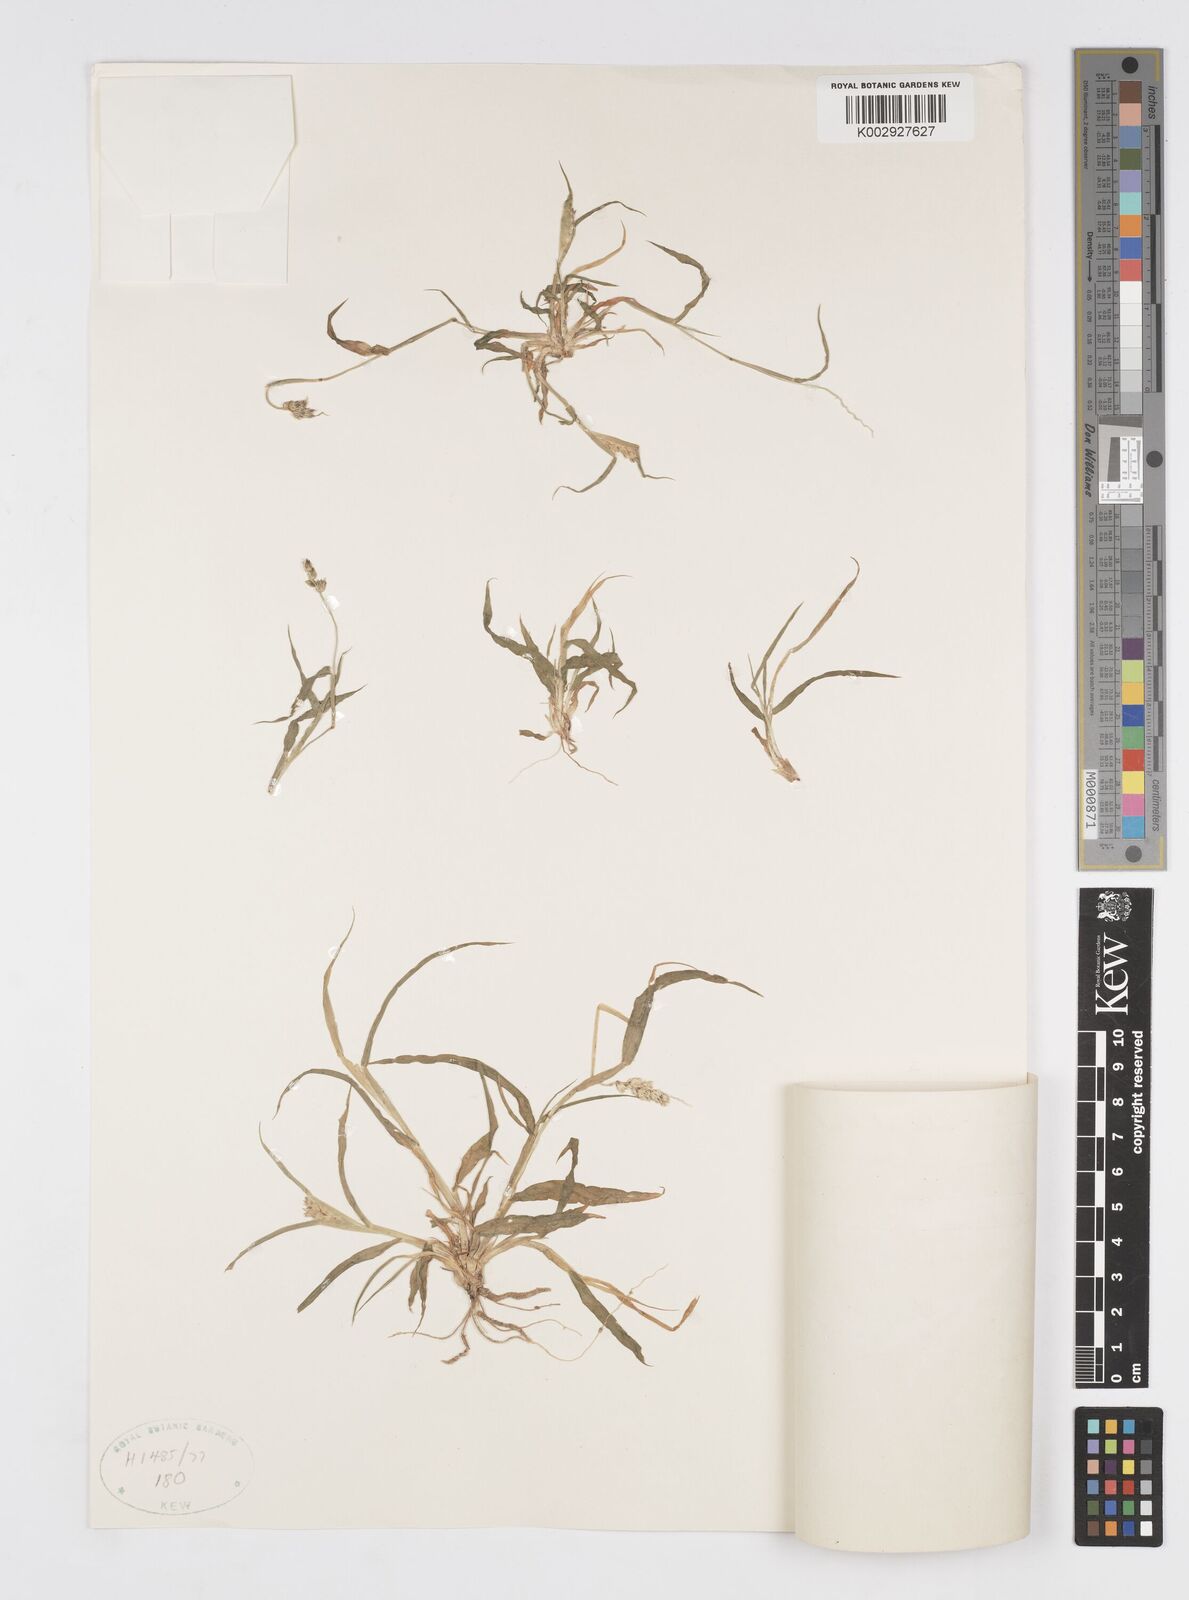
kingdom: Plantae
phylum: Tracheophyta
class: Liliopsida
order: Poales
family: Poaceae
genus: Cenchrus
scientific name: Cenchrus setigerus
